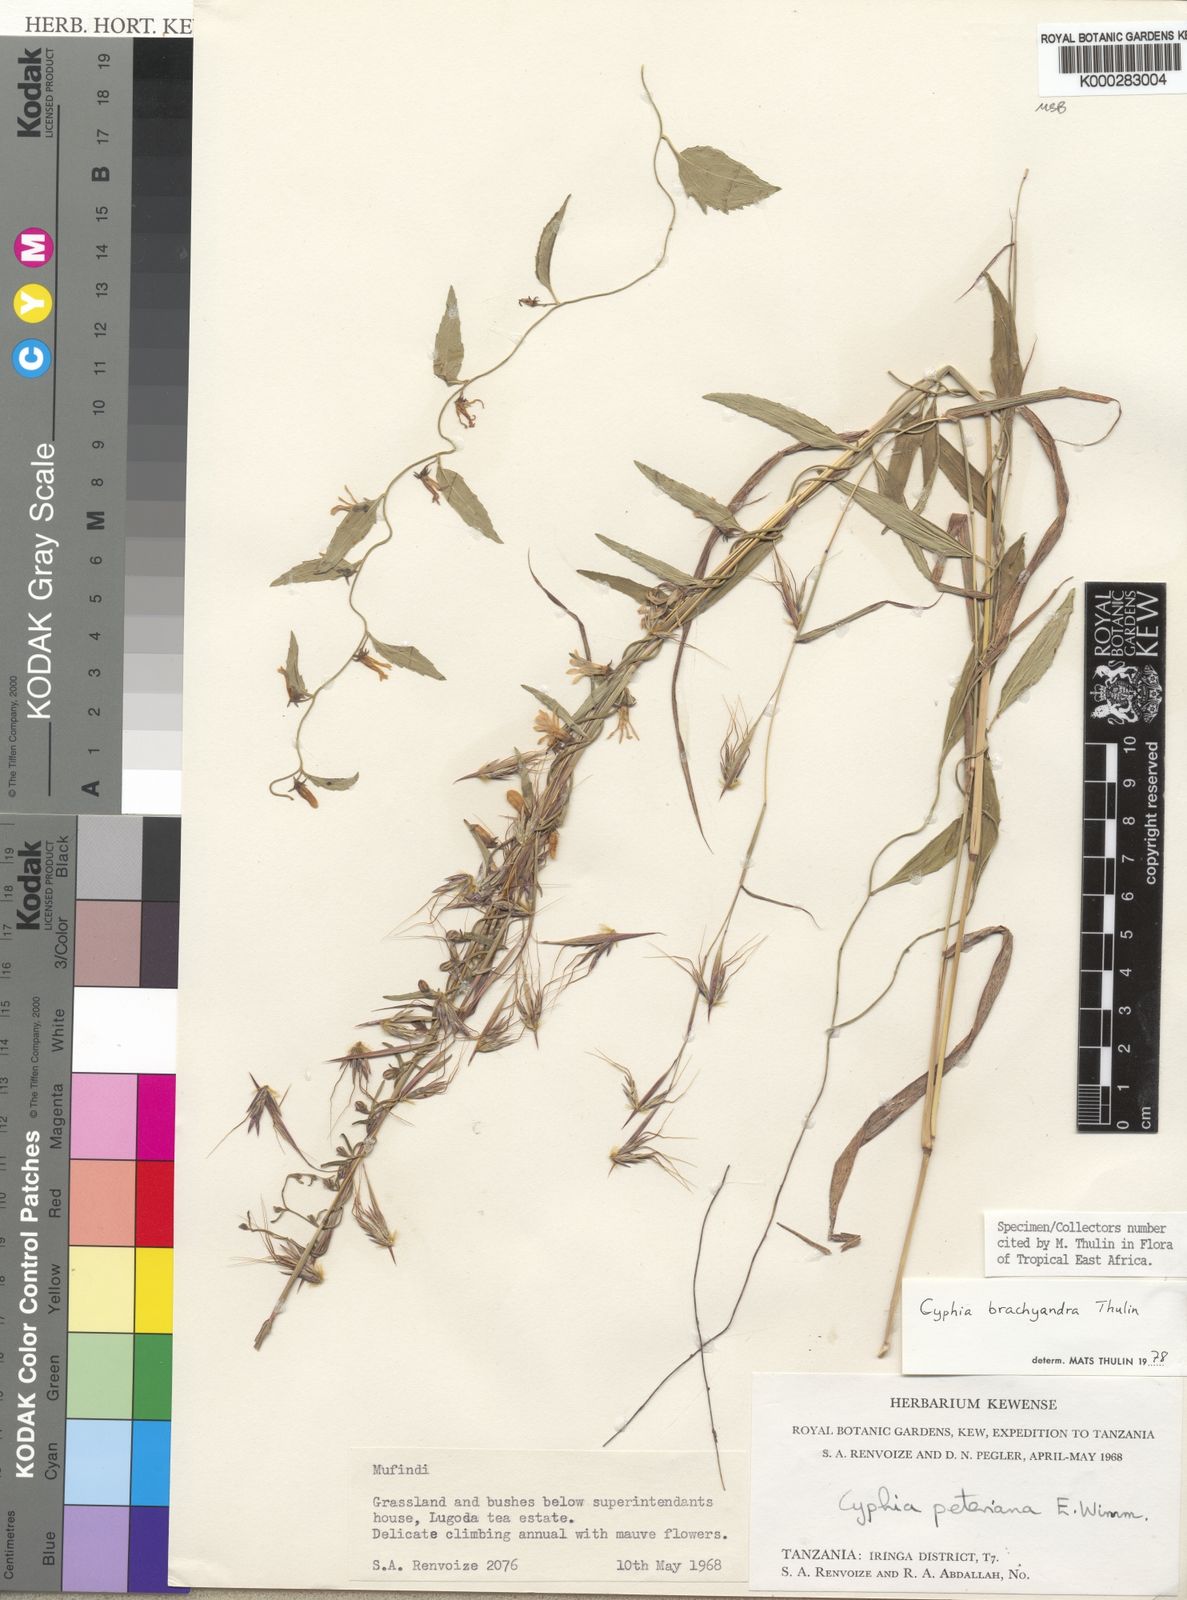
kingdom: Plantae
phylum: Tracheophyta
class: Magnoliopsida
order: Asterales
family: Campanulaceae
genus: Cyphia
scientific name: Cyphia brachyandra
